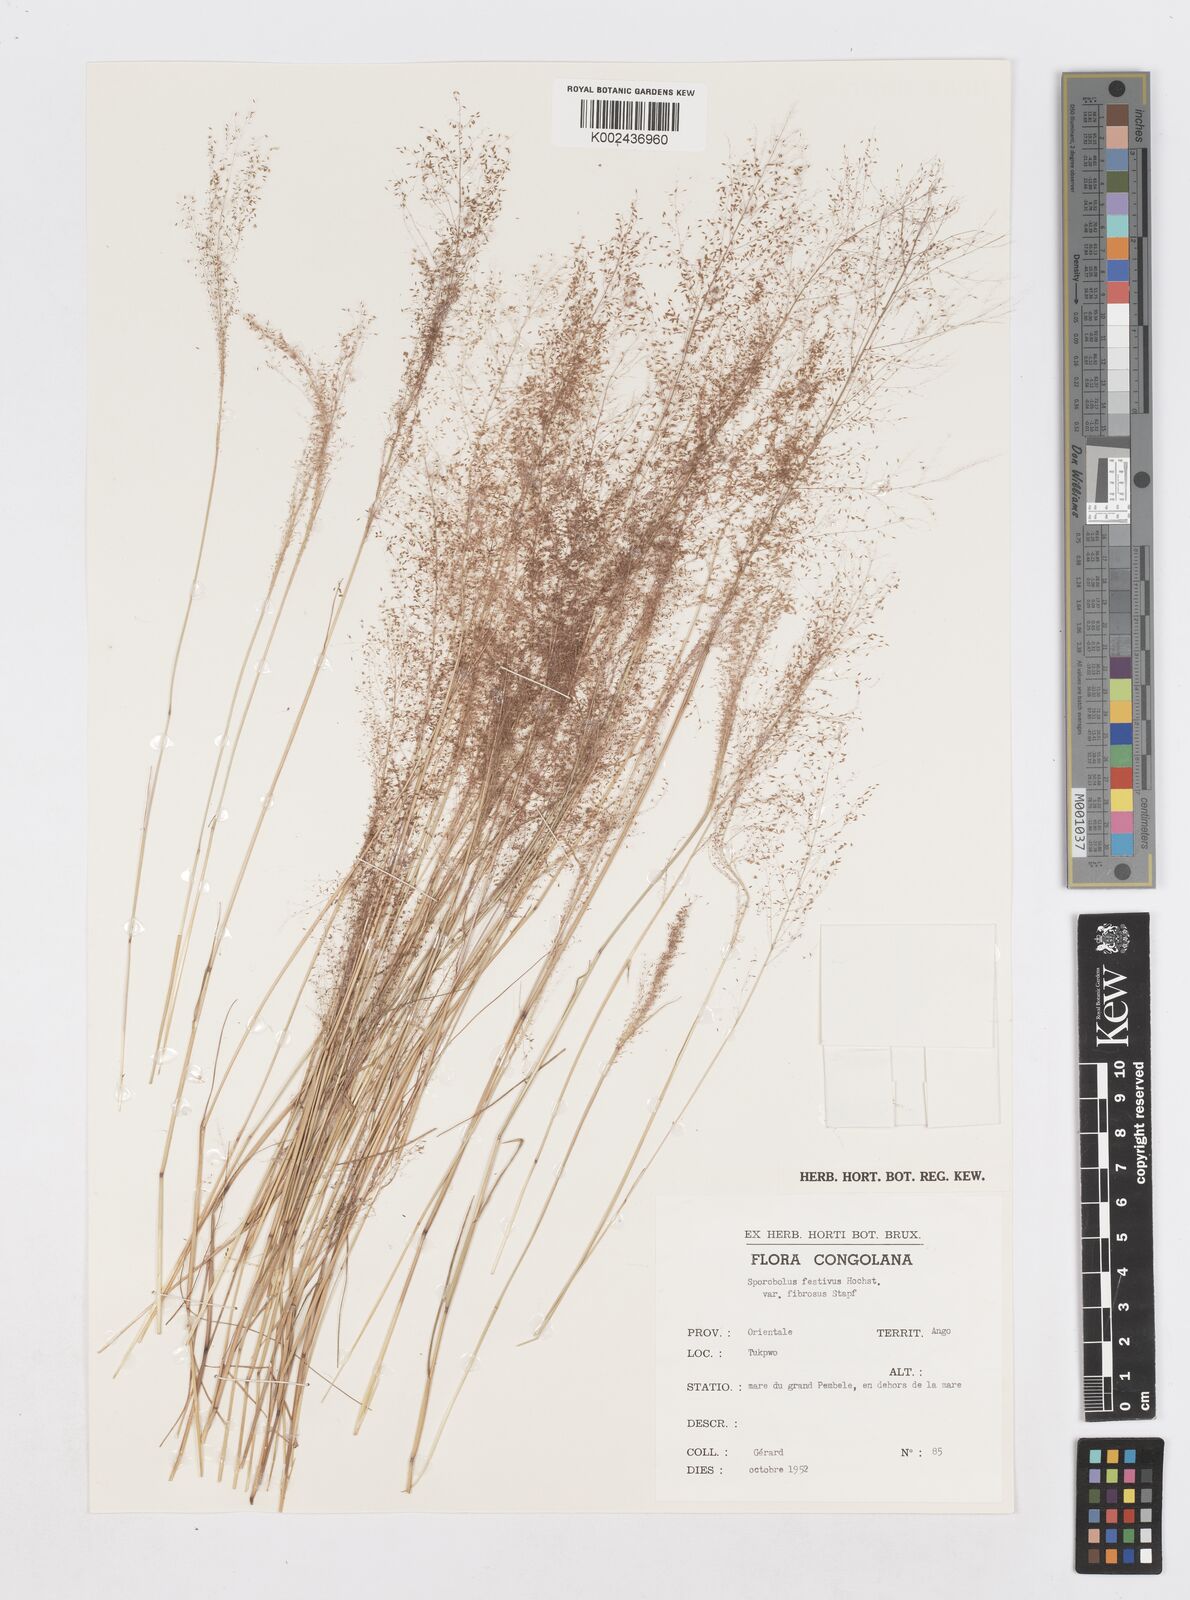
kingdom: Plantae
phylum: Tracheophyta
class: Liliopsida
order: Poales
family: Poaceae
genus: Sporobolus
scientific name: Sporobolus festivus
